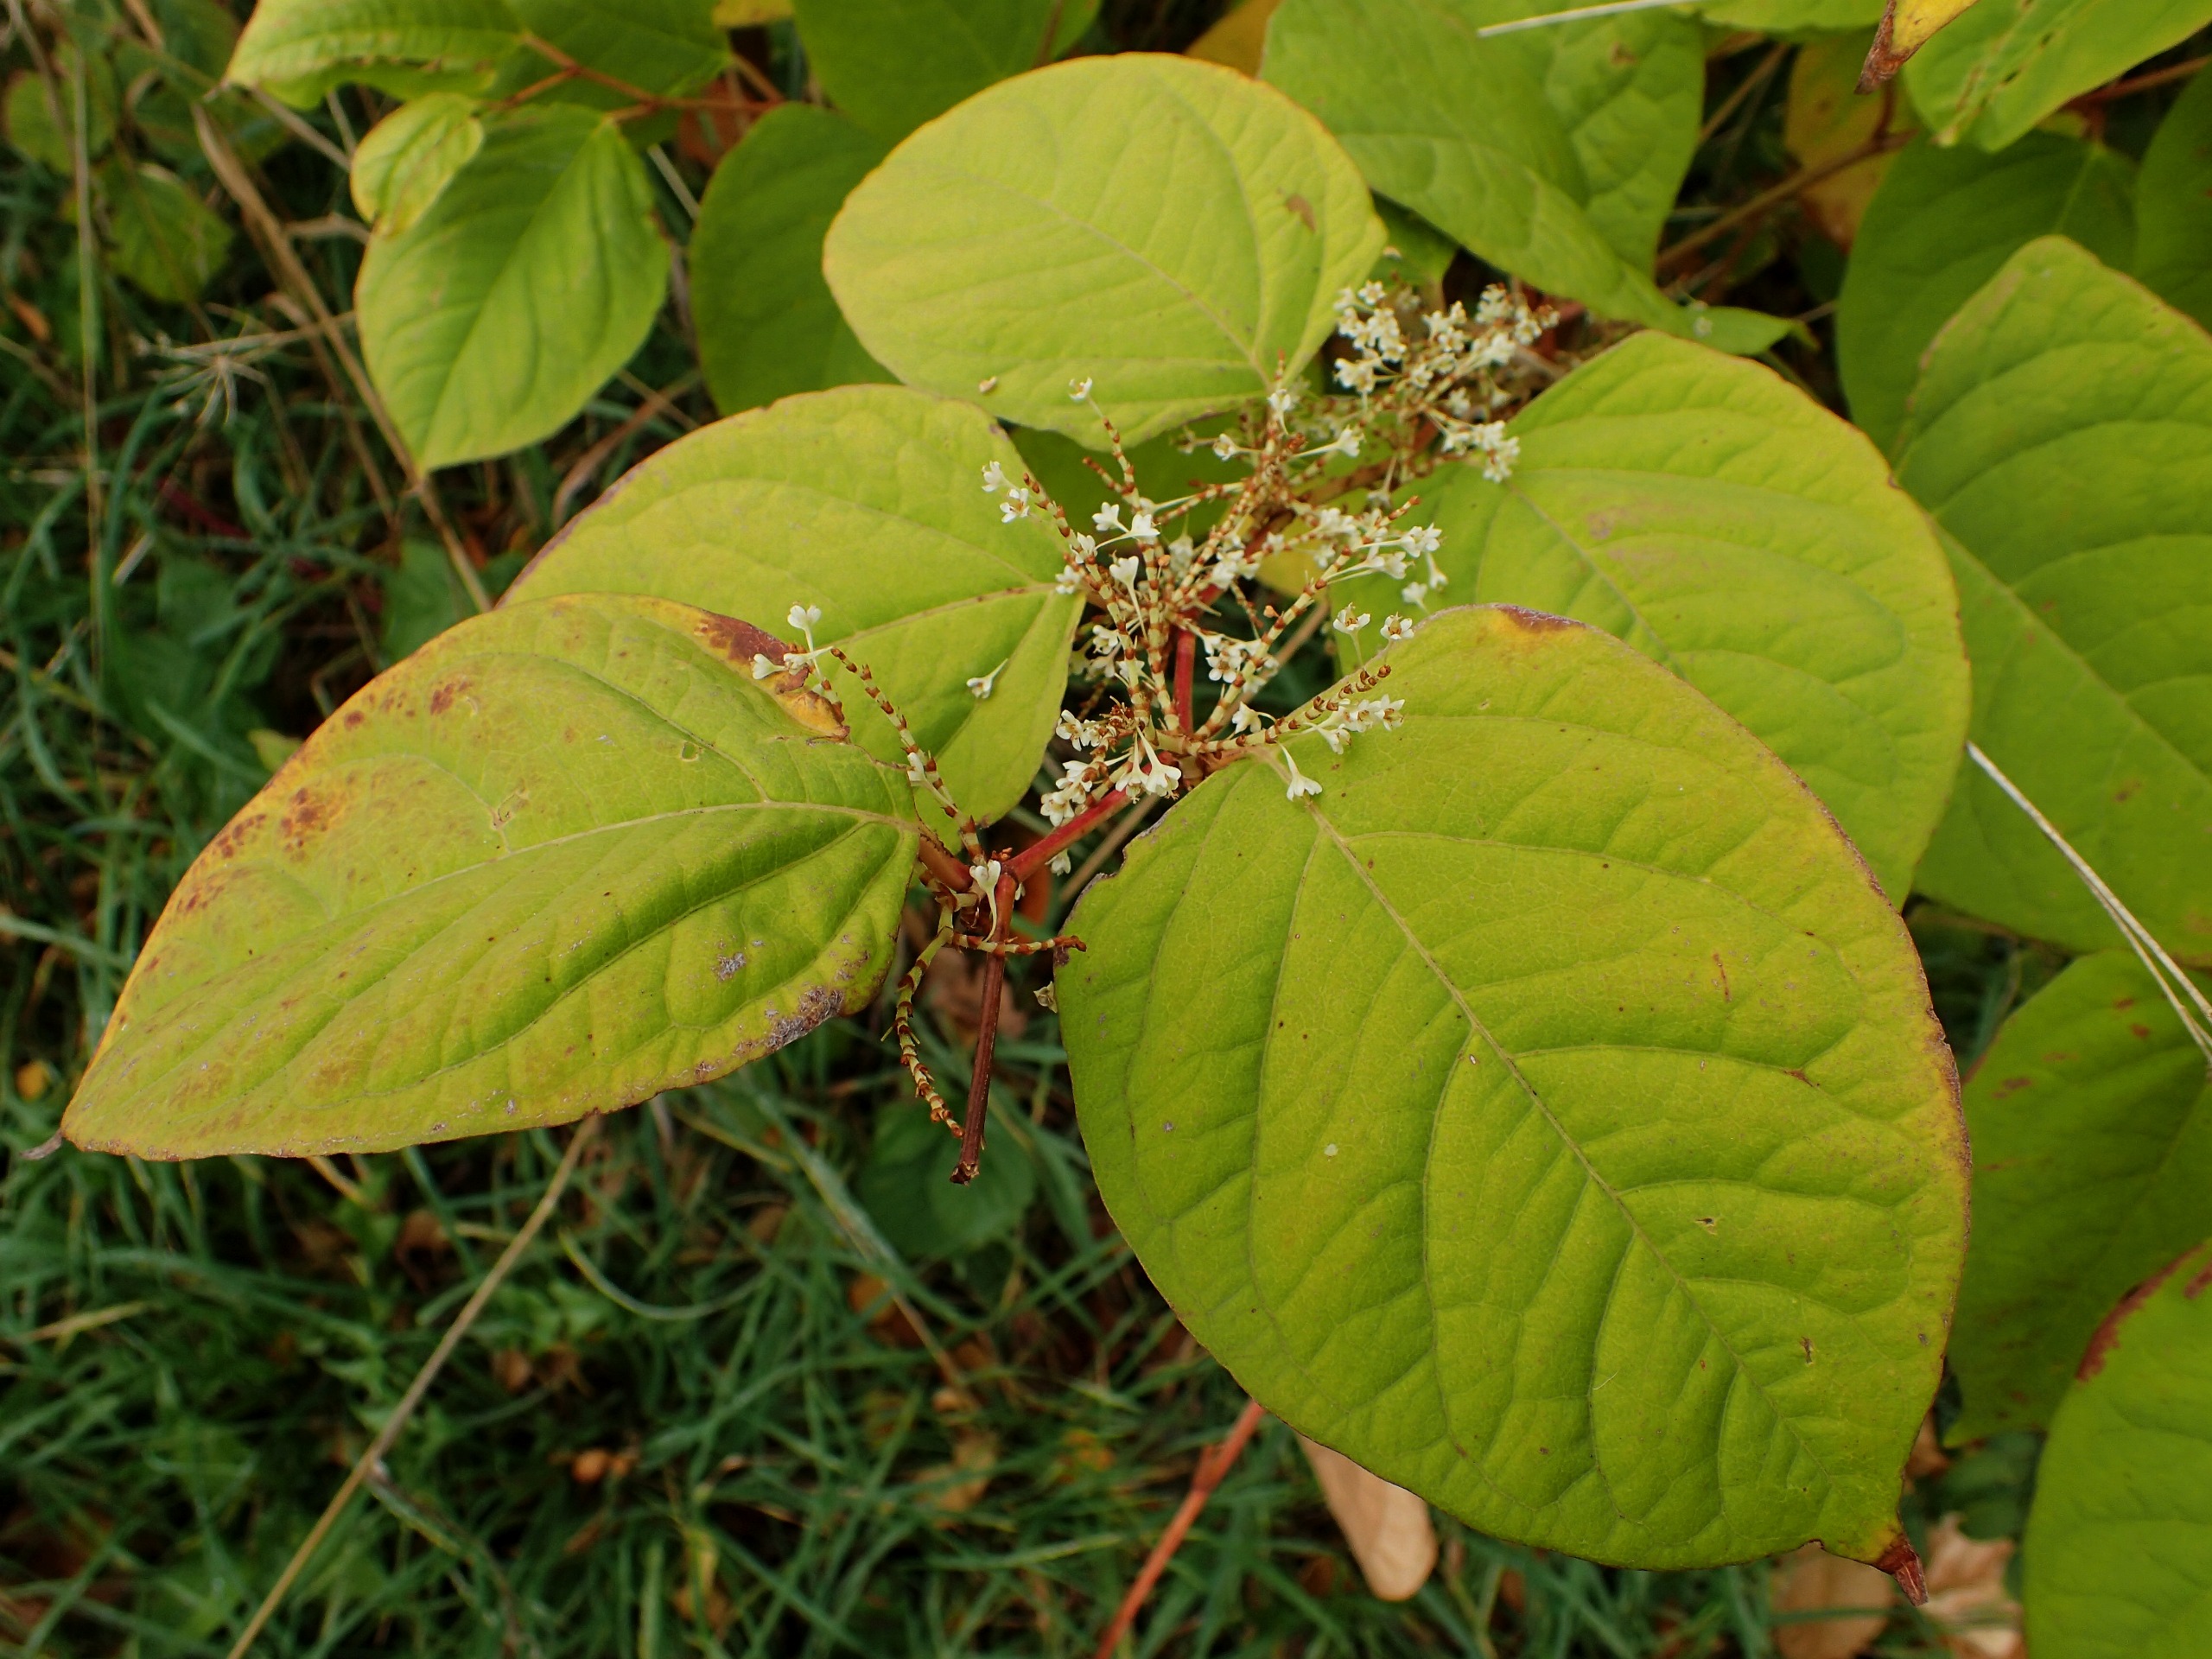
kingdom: Plantae
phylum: Tracheophyta
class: Magnoliopsida
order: Caryophyllales
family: Polygonaceae
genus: Reynoutria
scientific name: Reynoutria japonica
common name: Japan-pileurt
